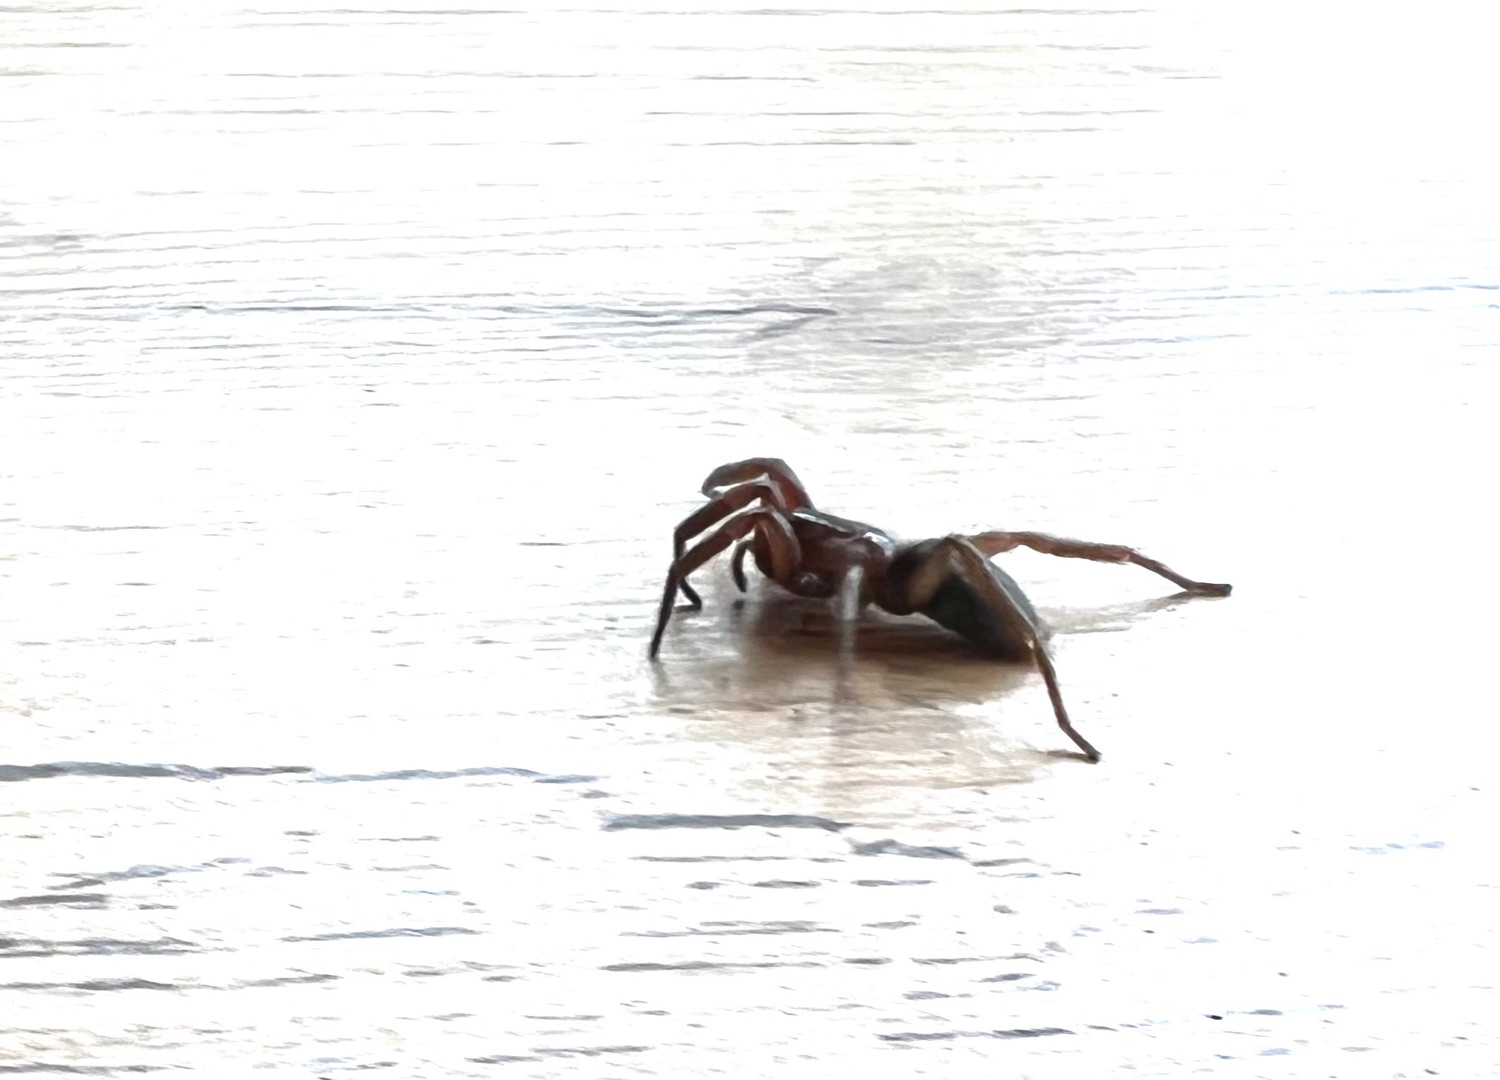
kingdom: Animalia
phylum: Arthropoda
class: Arachnida
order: Araneae
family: Gnaphosidae
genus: Scotophaeus
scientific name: Scotophaeus
